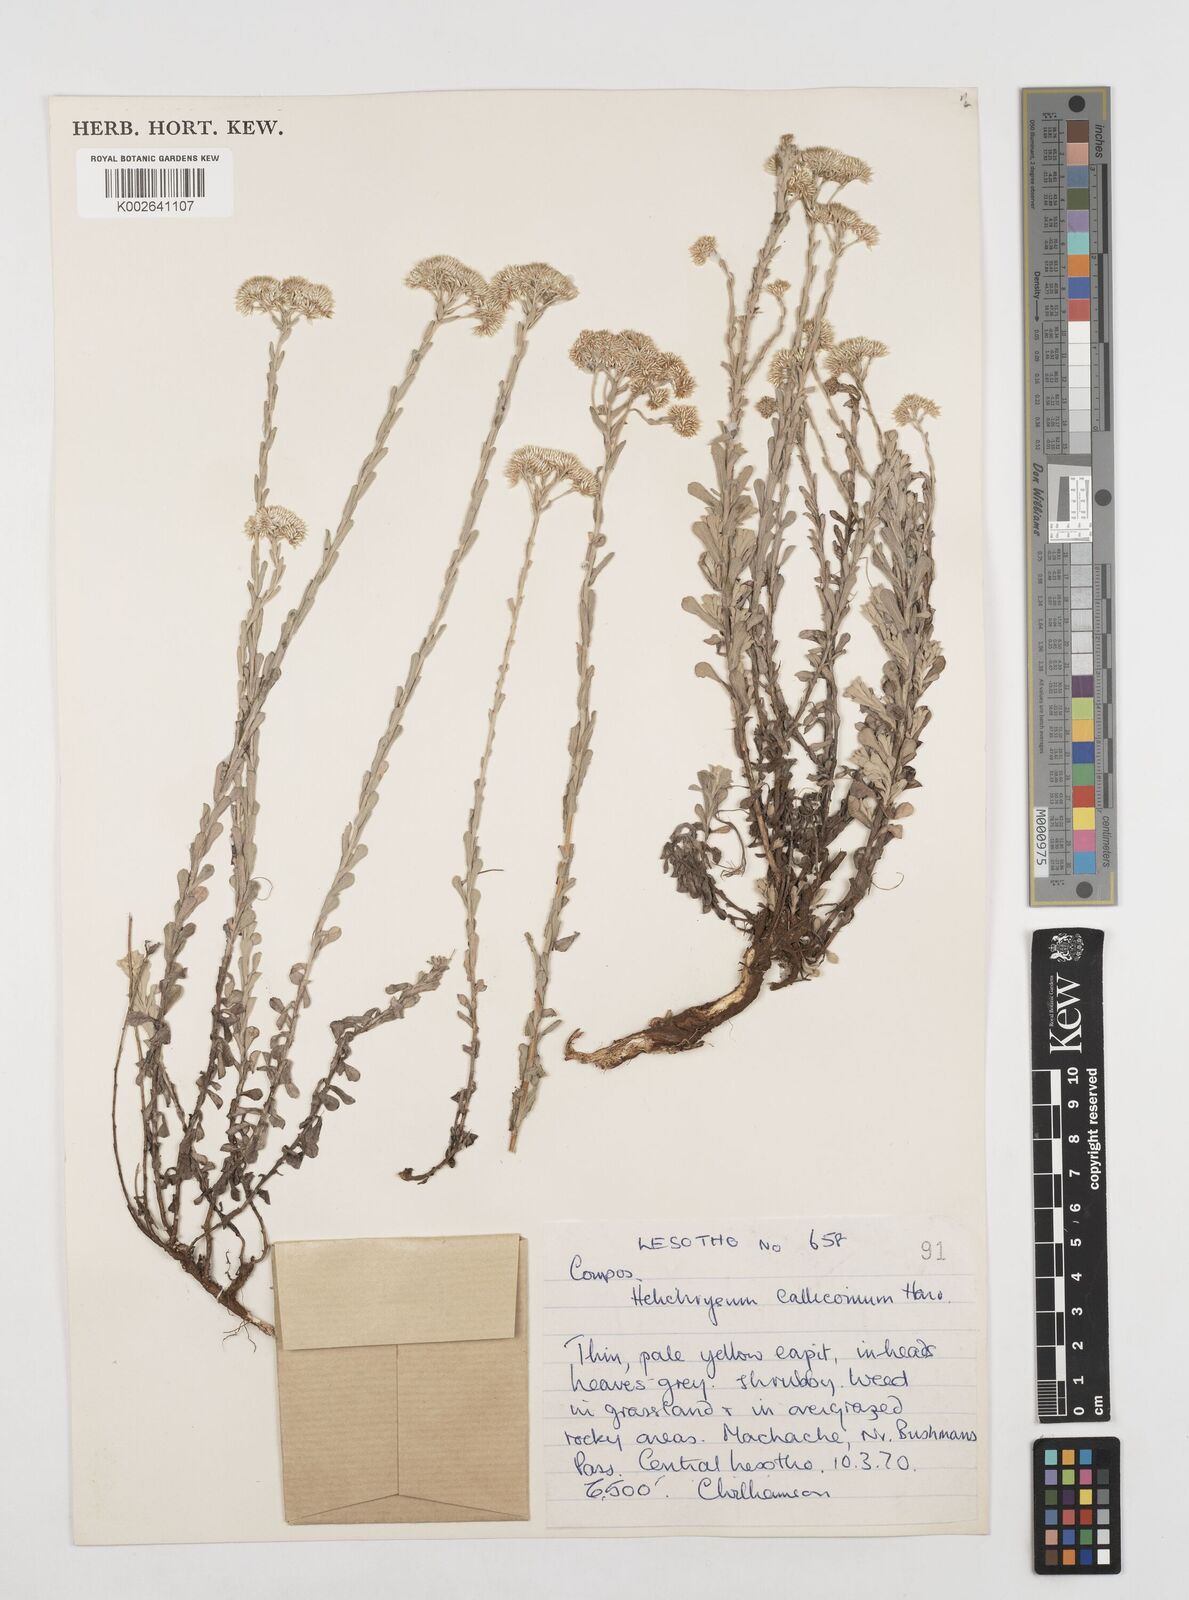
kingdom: Plantae
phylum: Tracheophyta
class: Magnoliopsida
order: Asterales
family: Asteraceae
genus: Helichrysum
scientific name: Helichrysum callicomum
